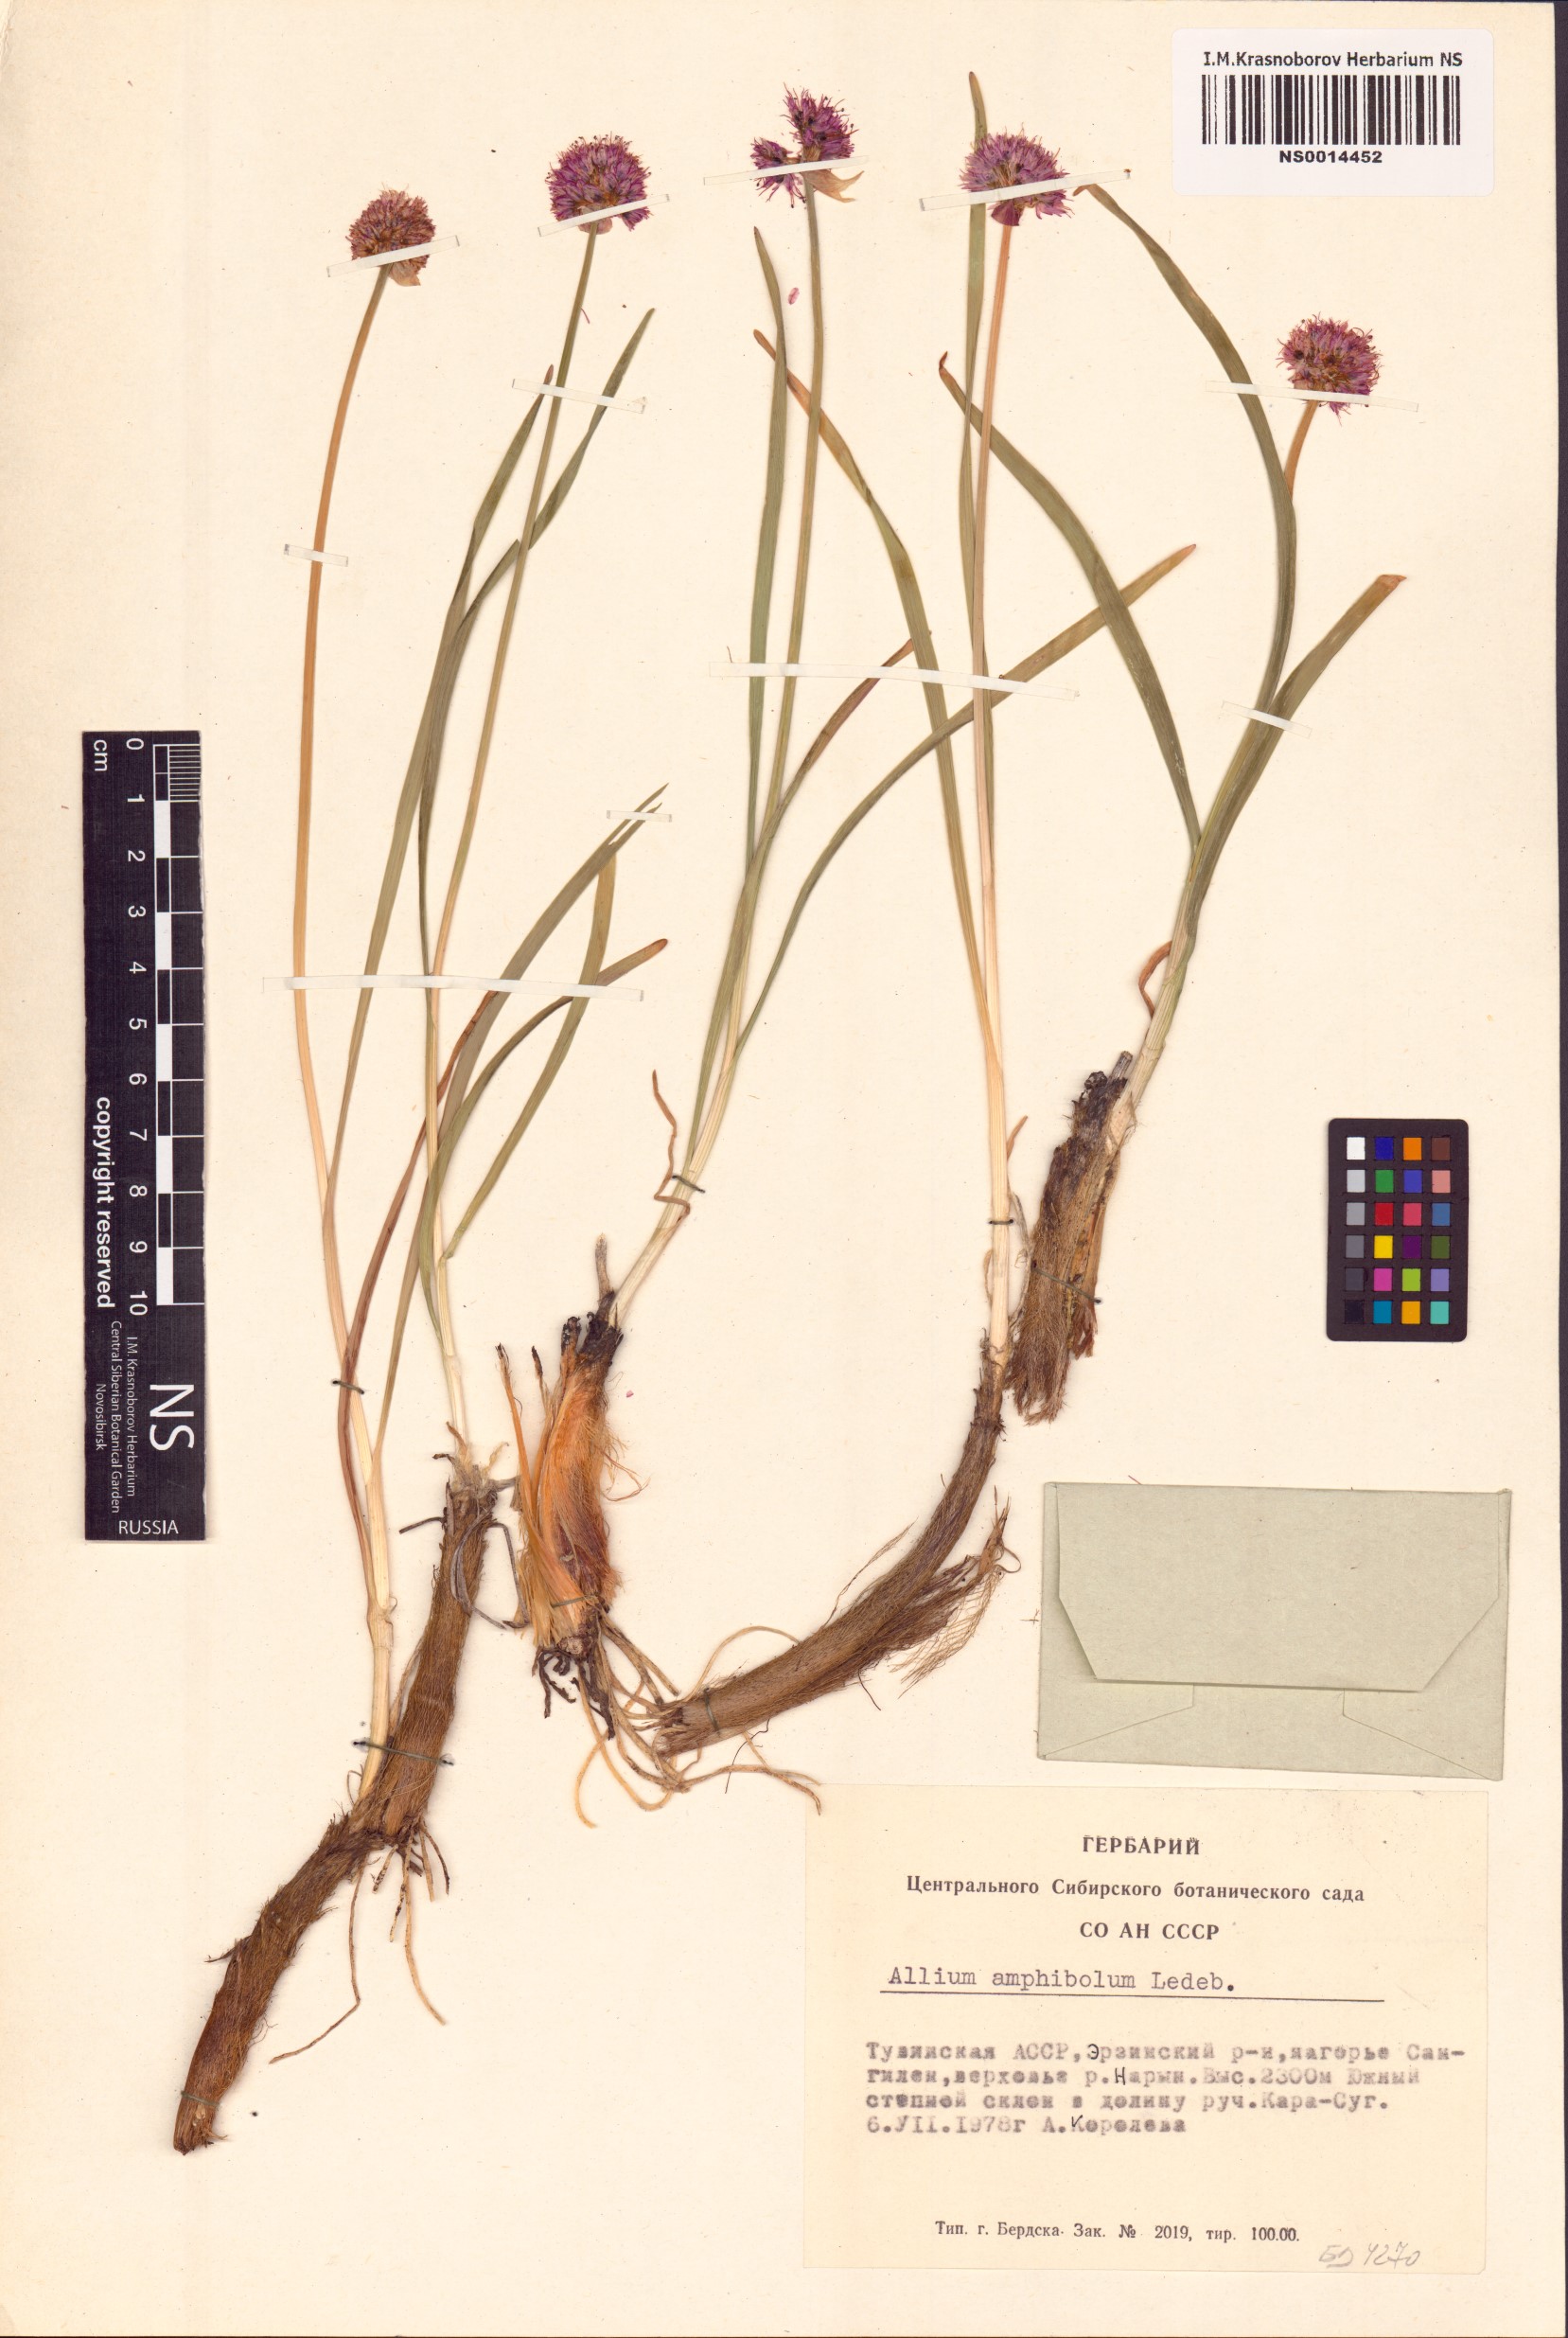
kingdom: Plantae
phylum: Tracheophyta
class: Liliopsida
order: Asparagales
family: Amaryllidaceae
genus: Allium
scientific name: Allium amphibolum
